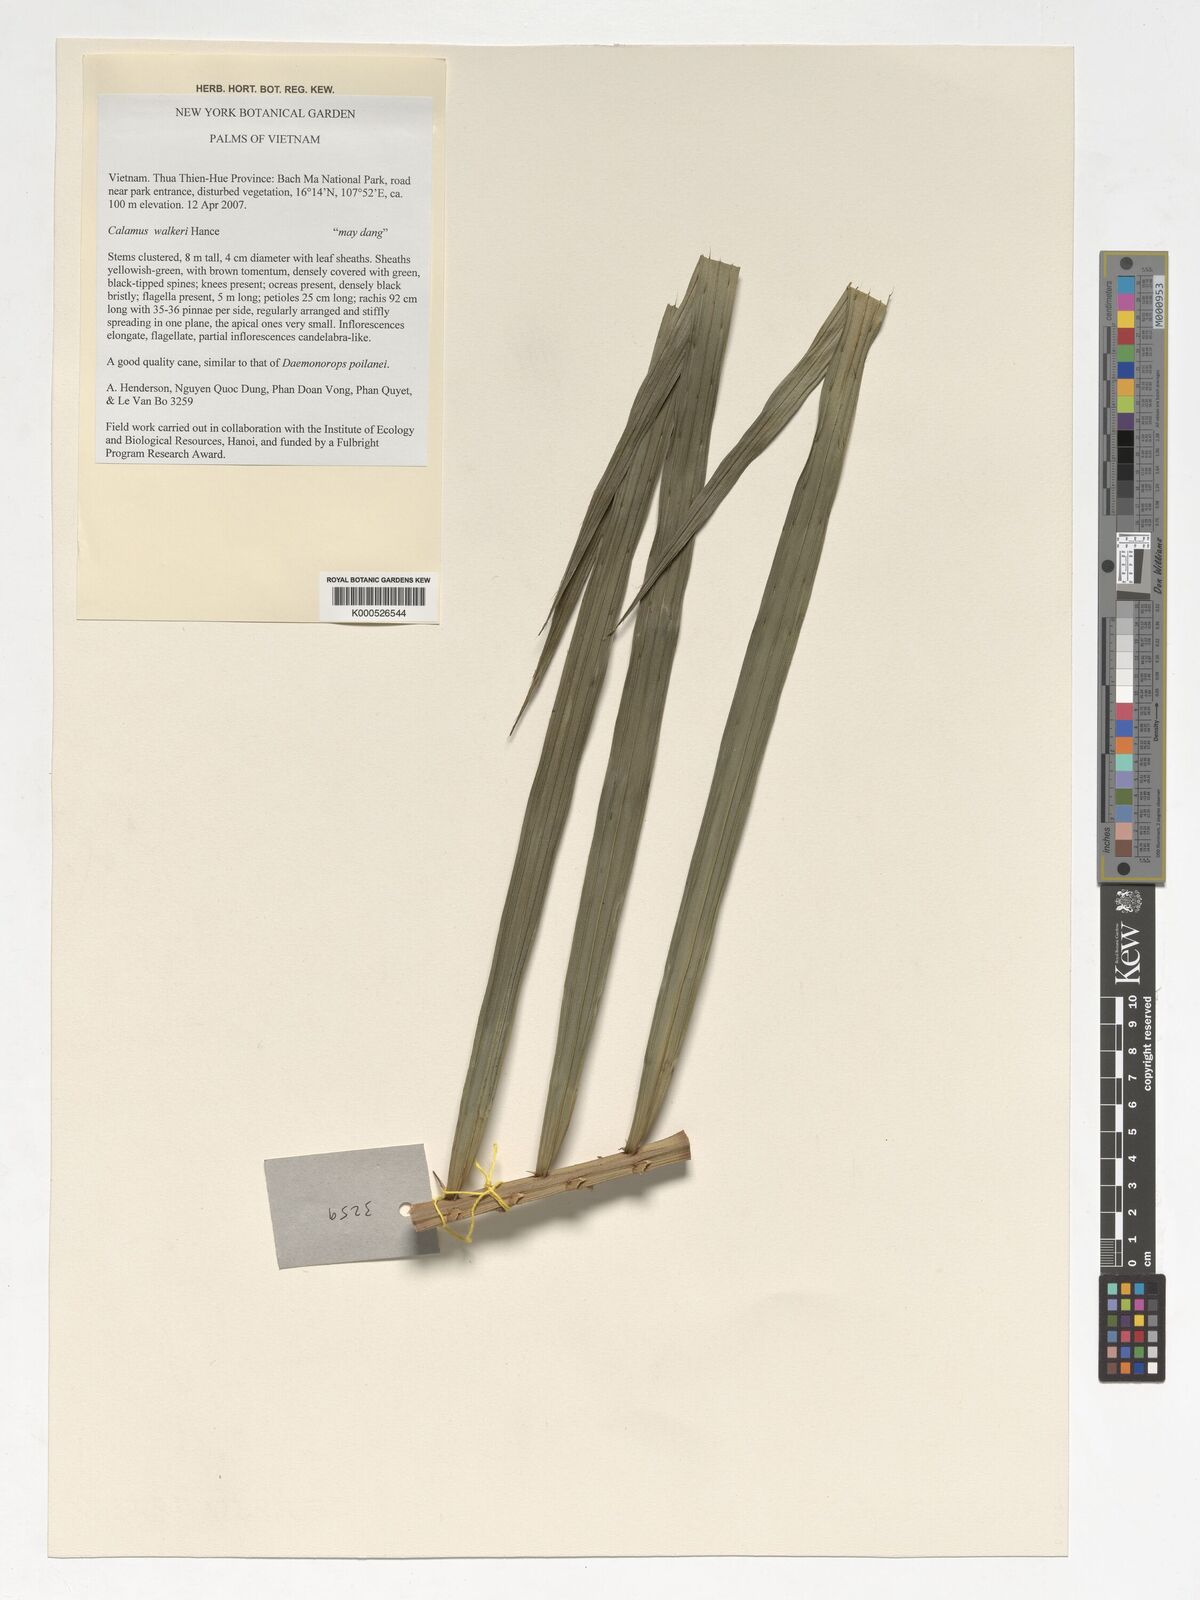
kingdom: Plantae
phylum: Tracheophyta
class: Liliopsida
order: Arecales
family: Arecaceae
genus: Calamus
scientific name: Calamus walkeri
